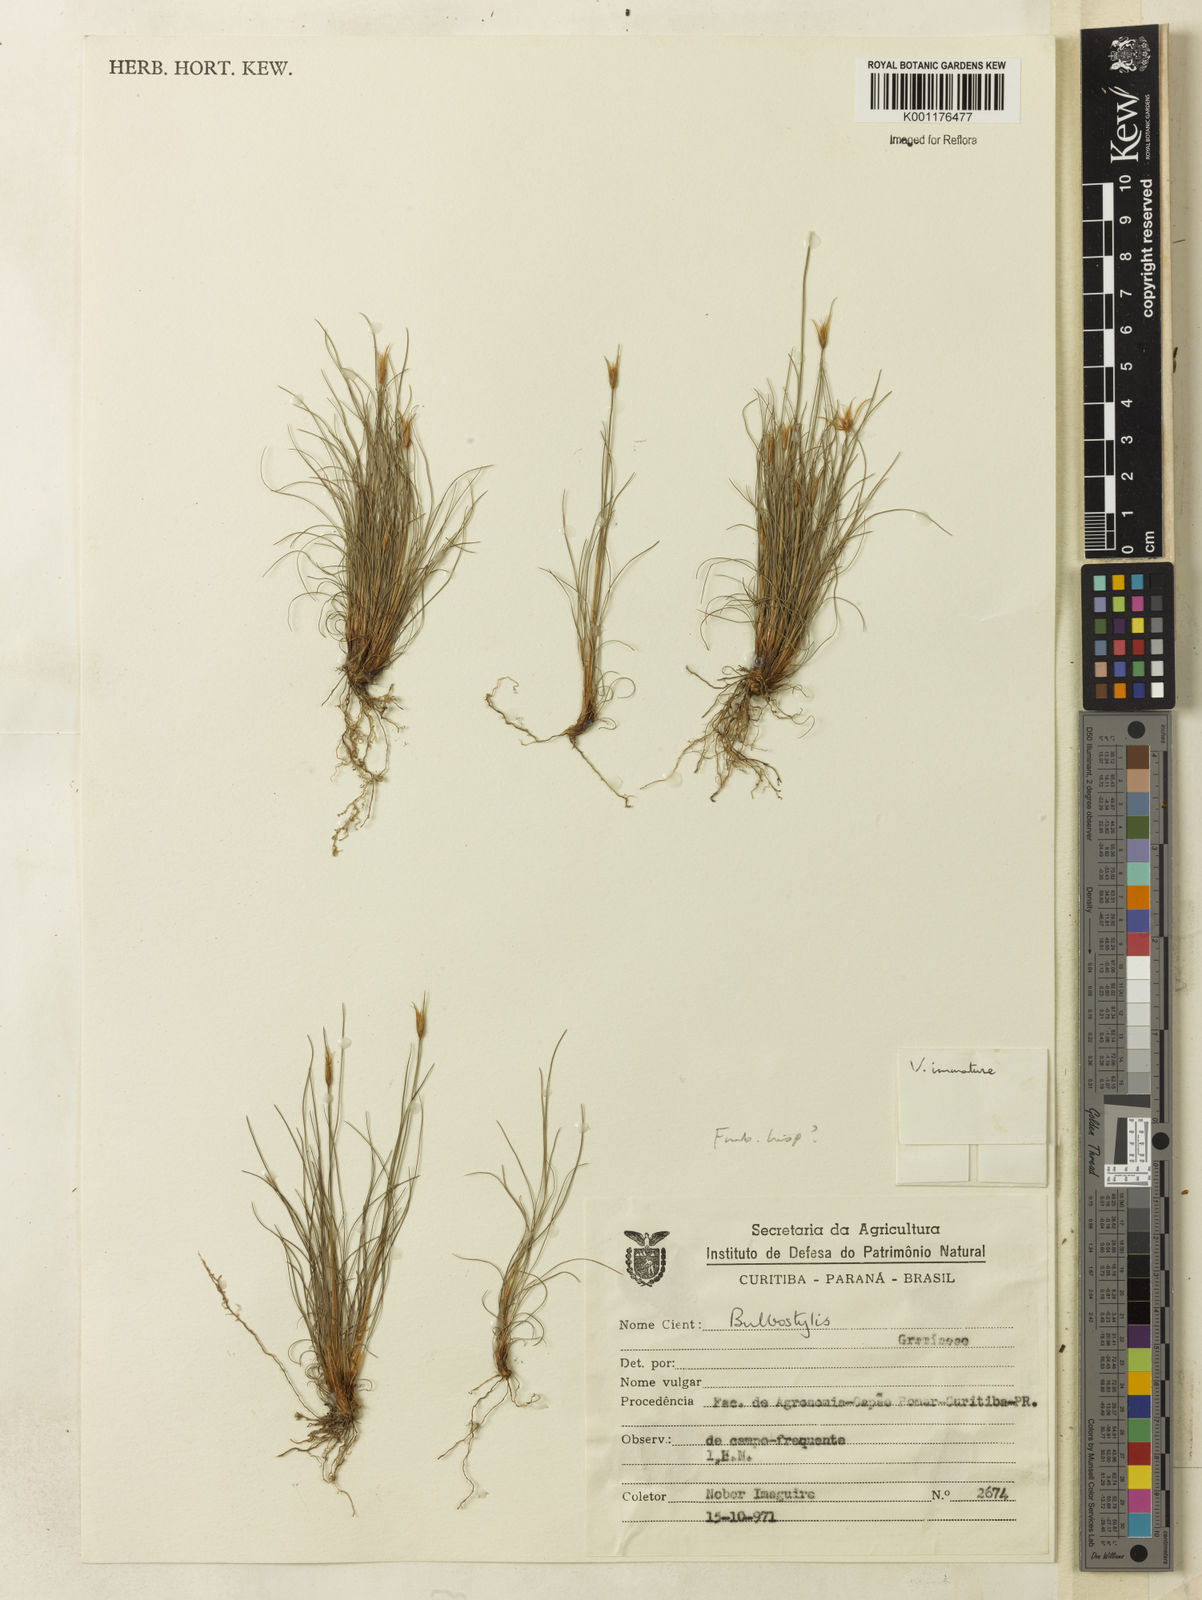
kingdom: Plantae
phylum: Tracheophyta
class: Liliopsida
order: Poales
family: Cyperaceae
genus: Bulbostylis
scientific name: Bulbostylis
